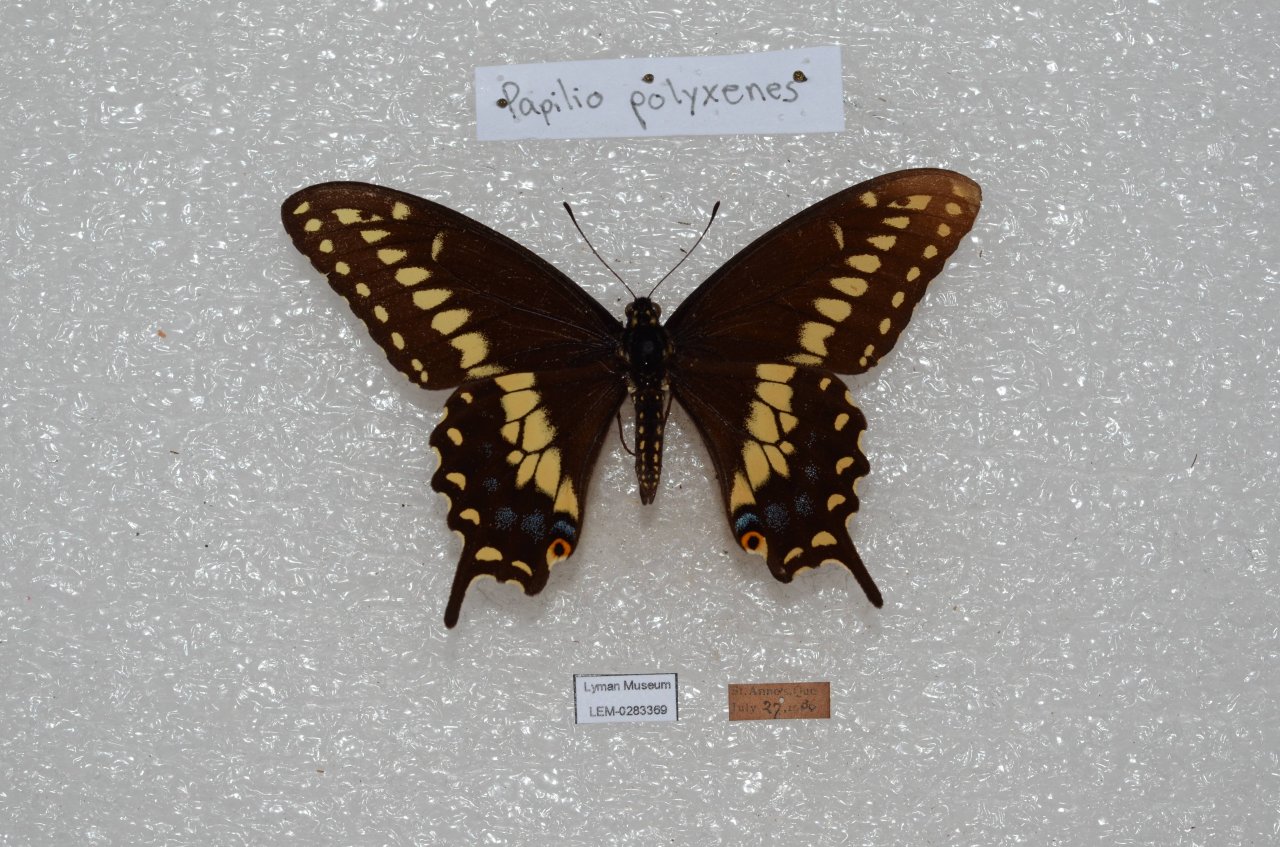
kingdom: Animalia
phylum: Arthropoda
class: Insecta
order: Lepidoptera
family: Papilionidae
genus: Papilio
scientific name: Papilio polyxenes
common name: Black Swallowtail
